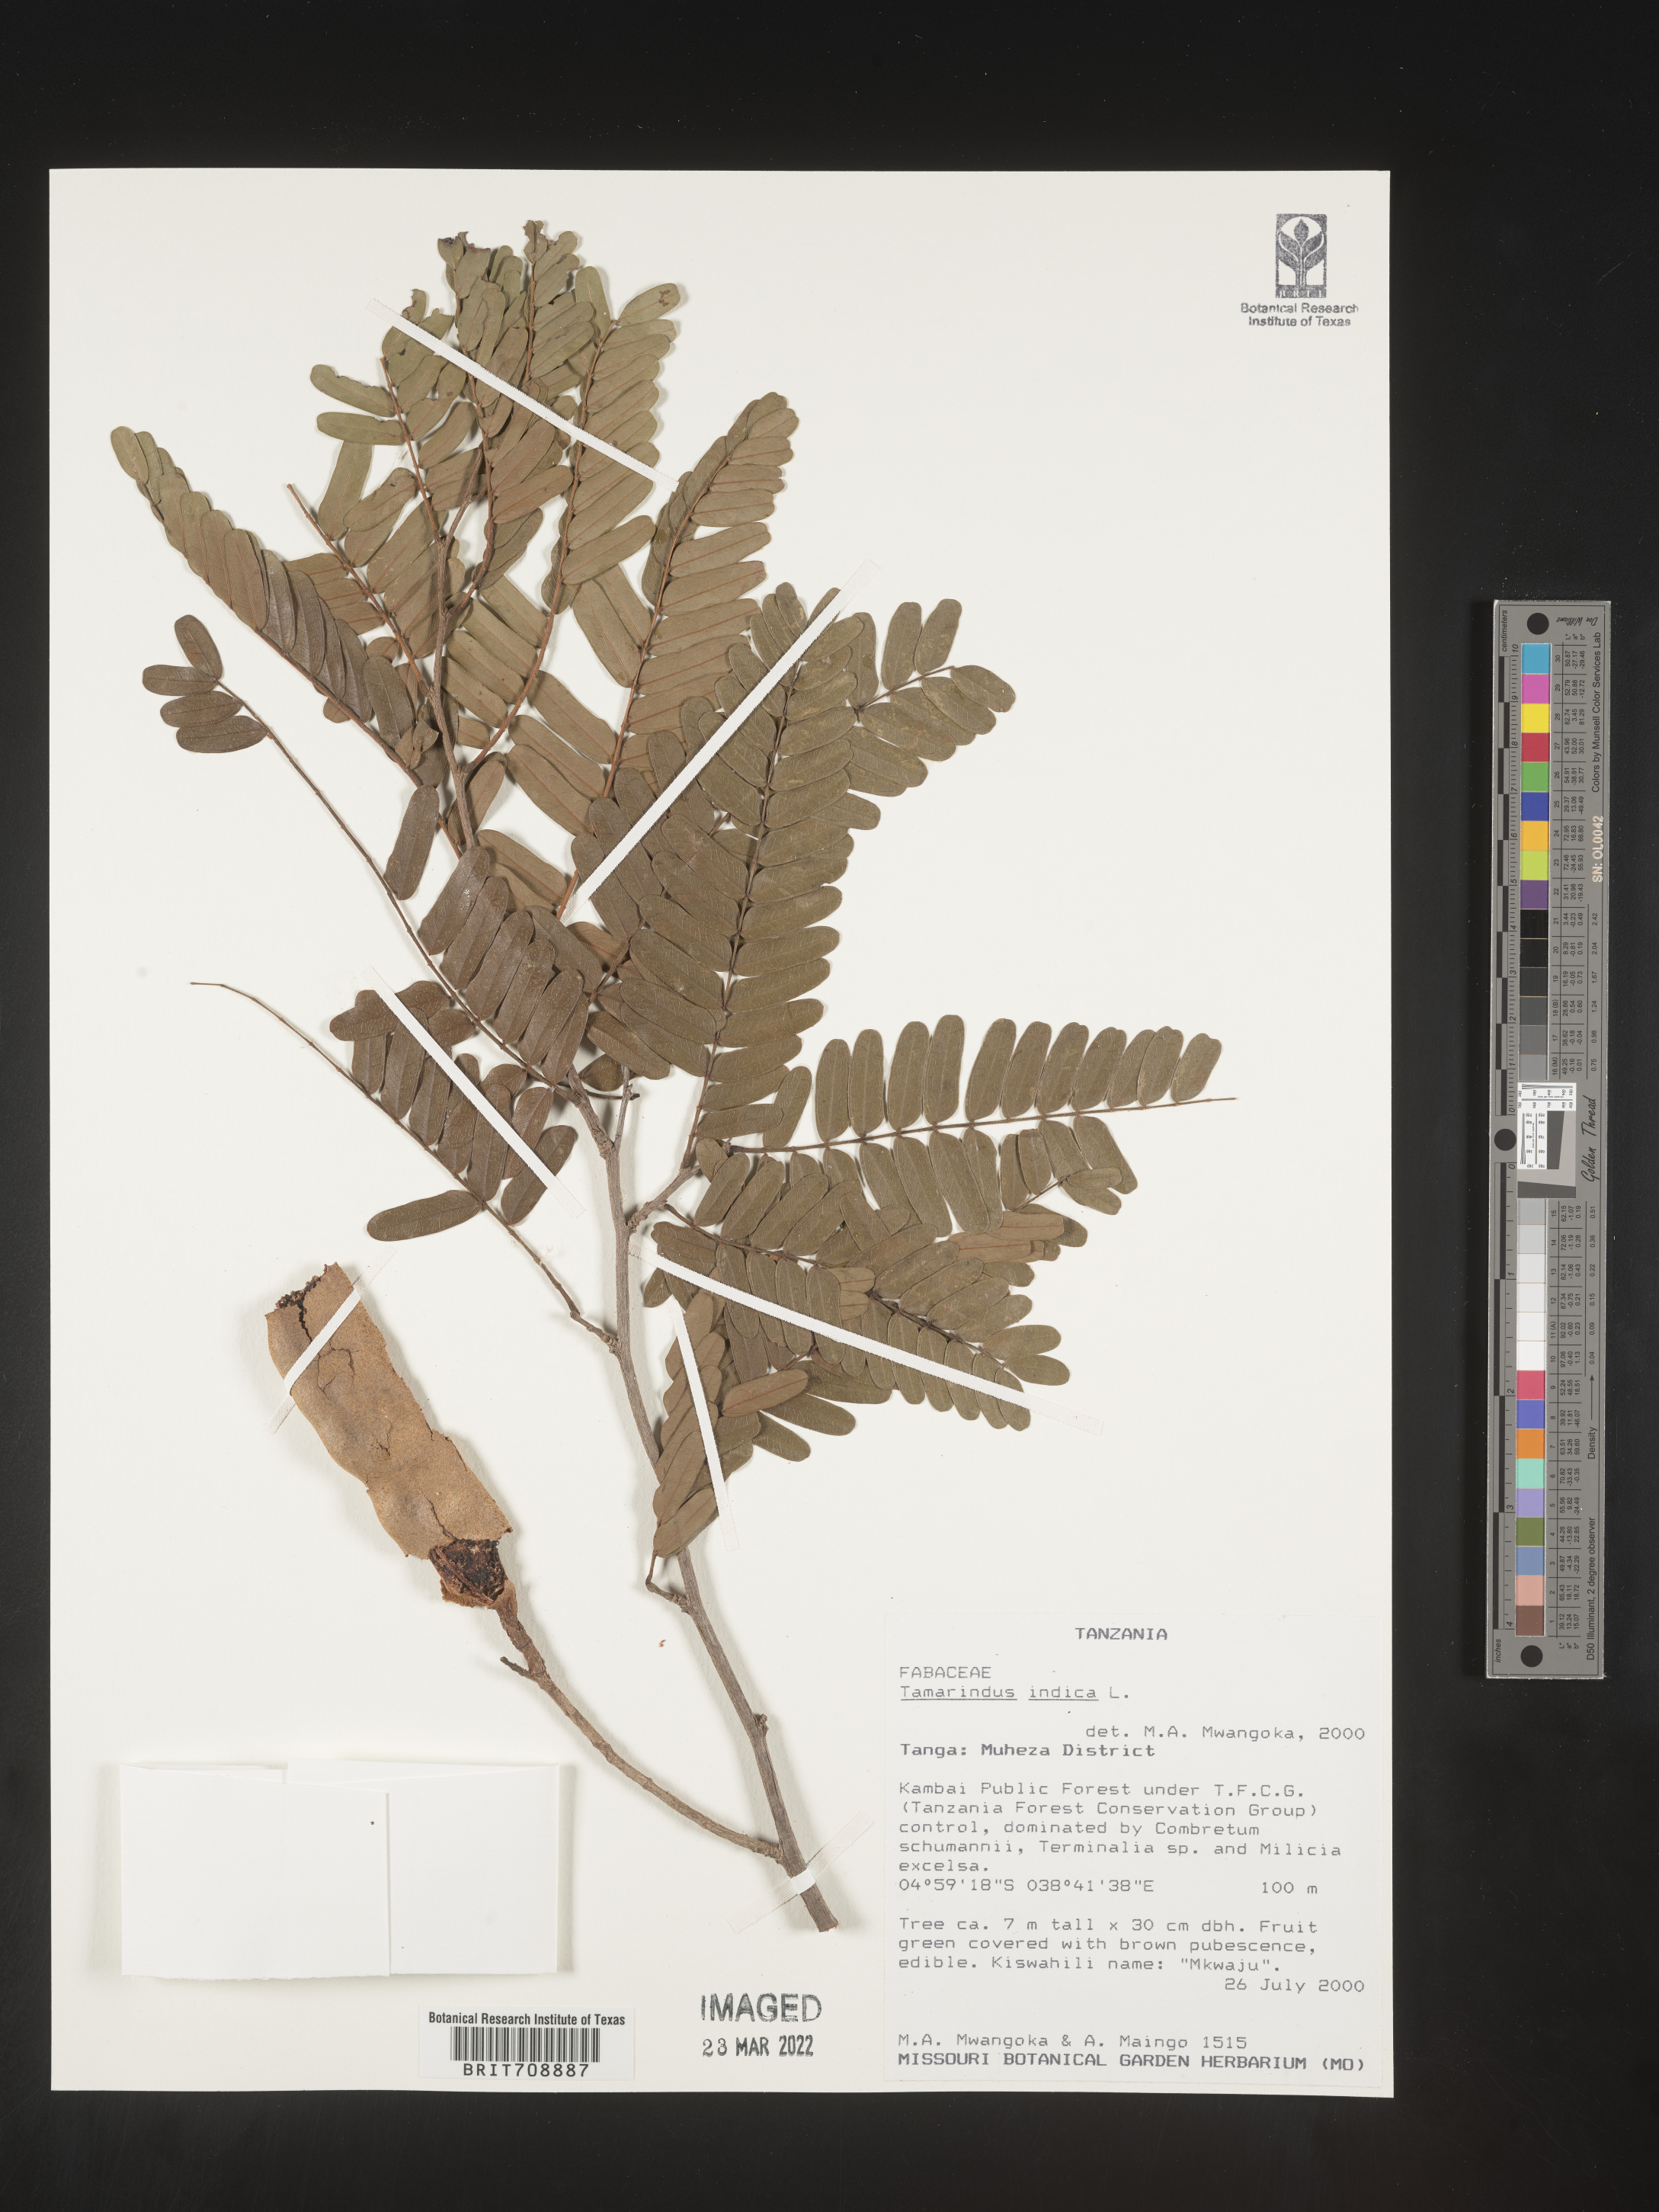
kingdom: Plantae
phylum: Tracheophyta
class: Magnoliopsida
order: Fabales
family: Fabaceae
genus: Tamarindus
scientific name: Tamarindus
